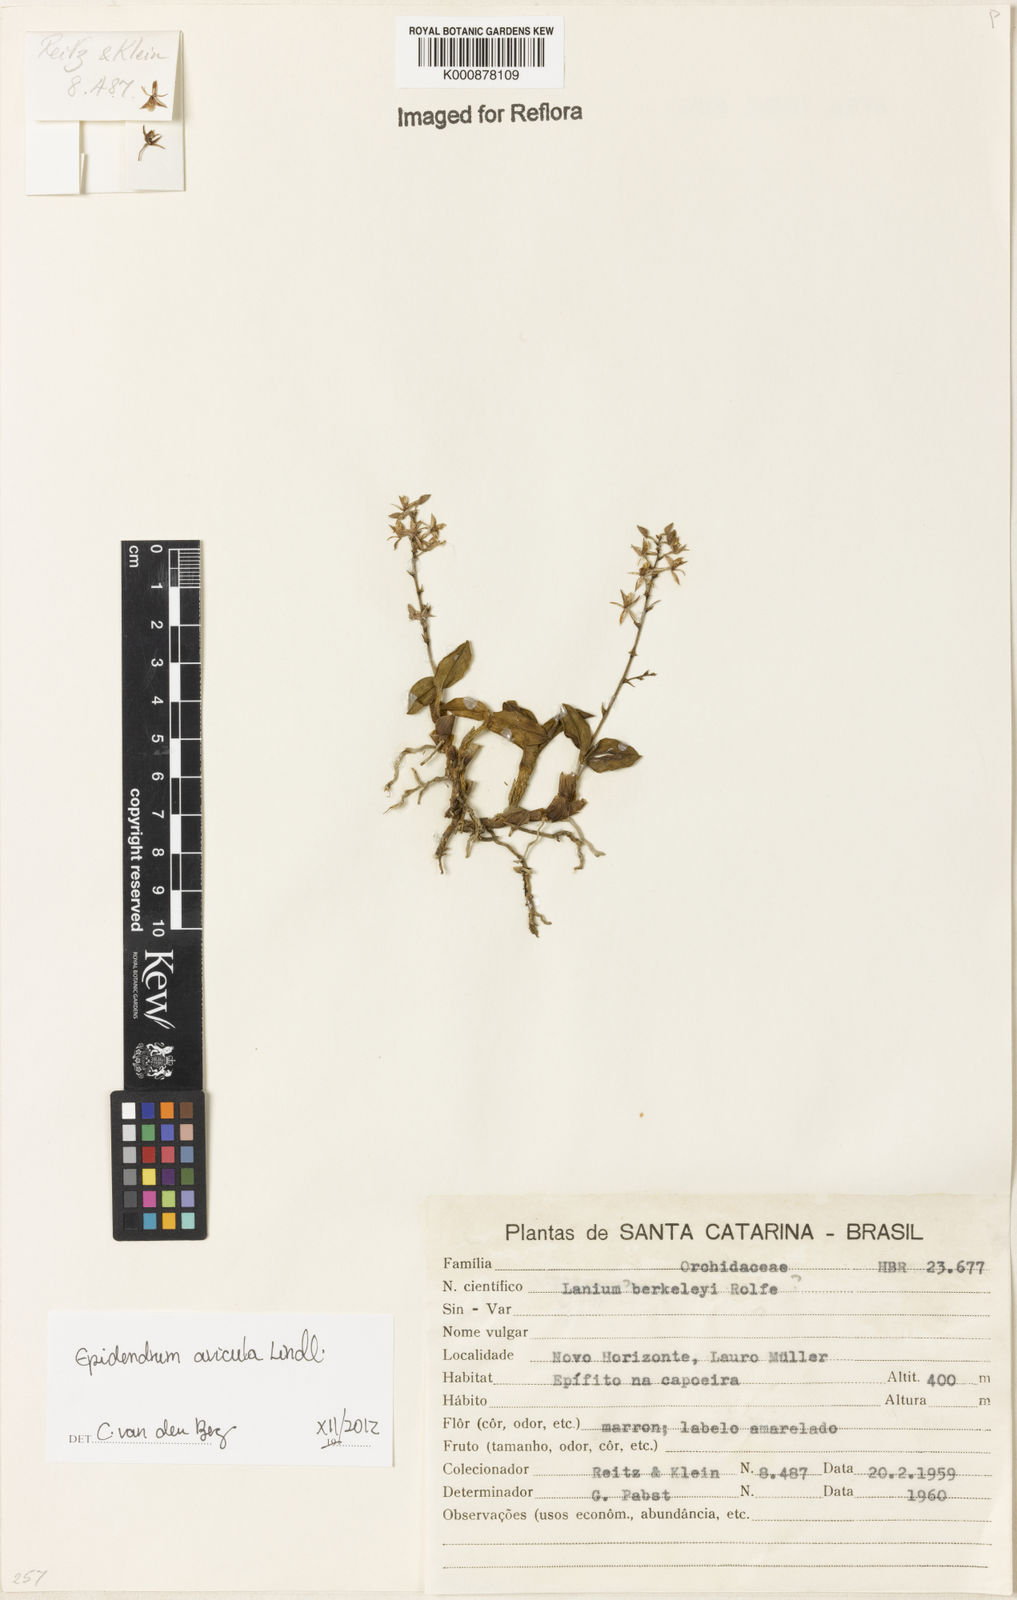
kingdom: Plantae
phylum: Tracheophyta
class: Liliopsida
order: Asparagales
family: Orchidaceae
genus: Epidendrum
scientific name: Epidendrum avicula
